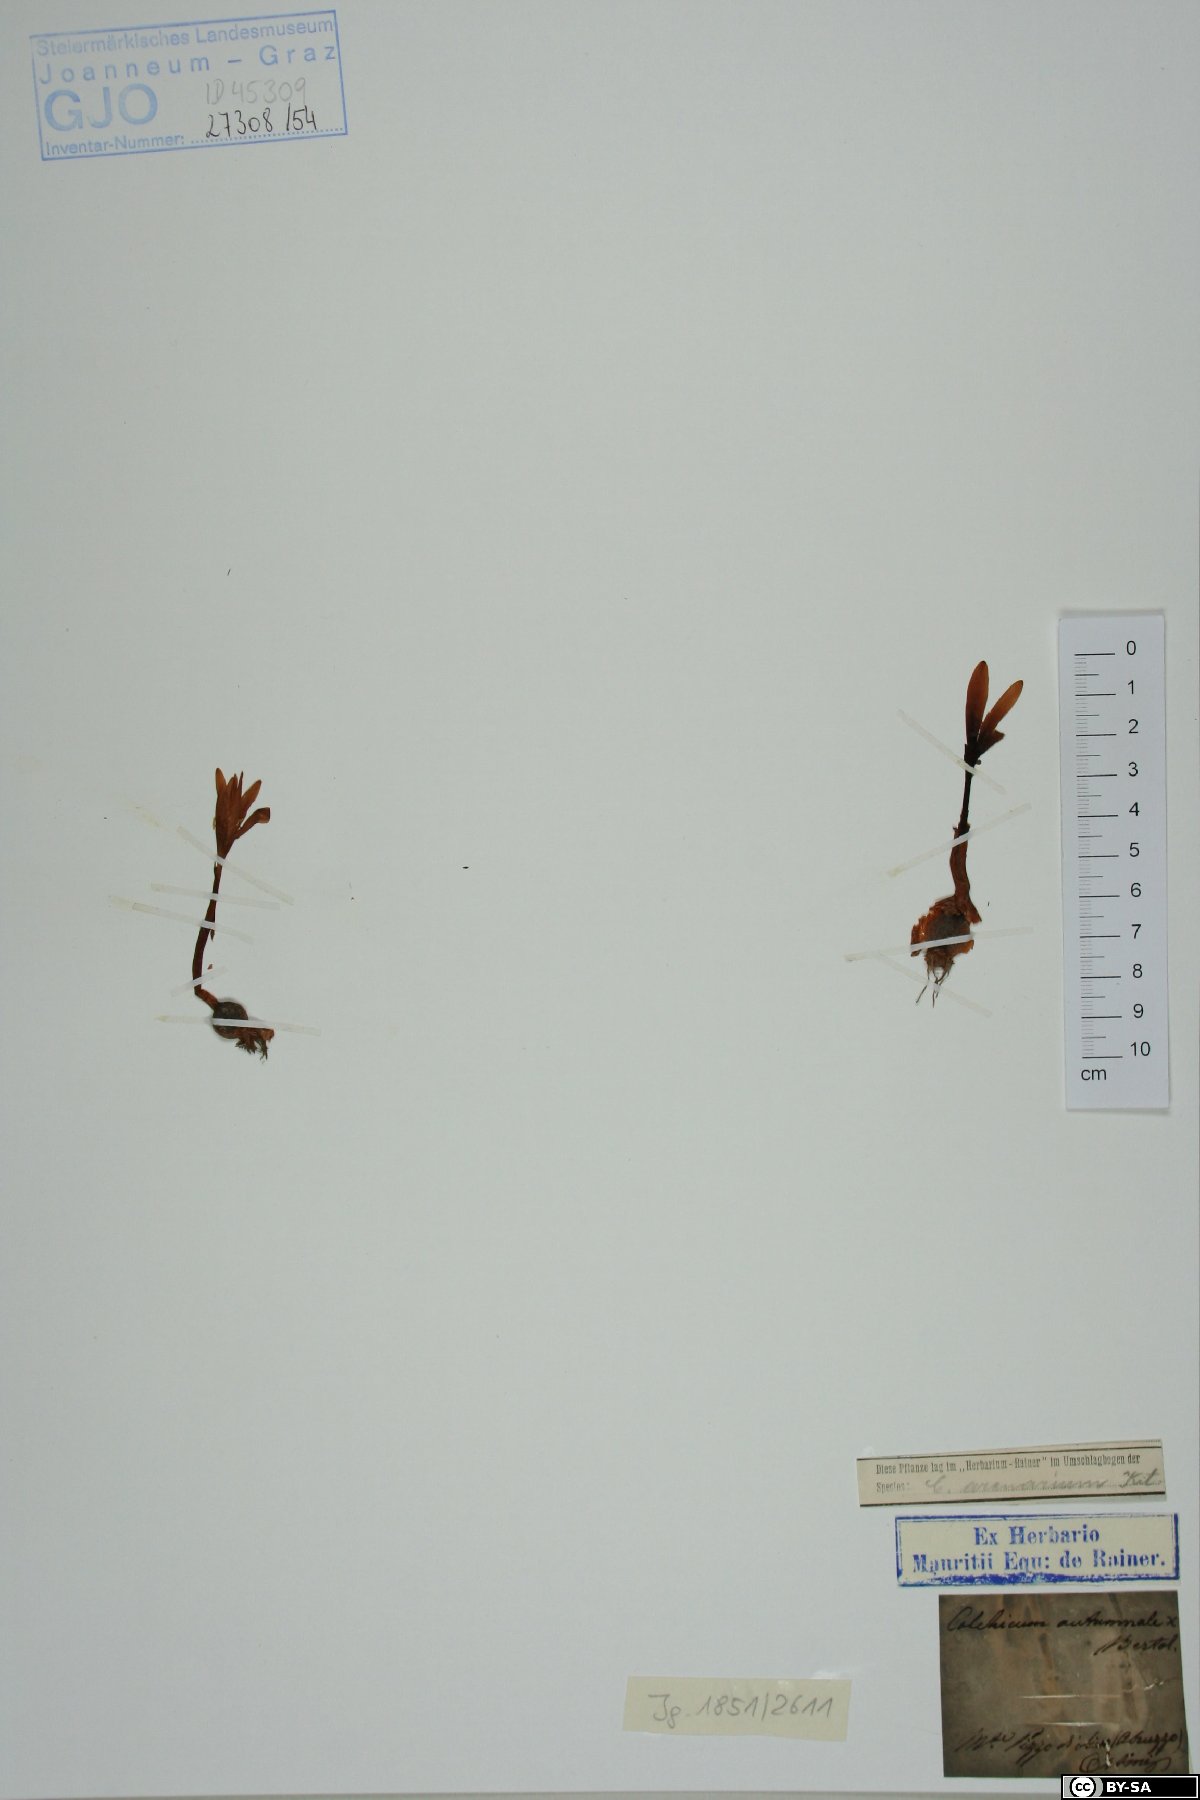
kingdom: Plantae
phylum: Tracheophyta
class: Liliopsida
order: Liliales
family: Colchicaceae
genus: Colchicum
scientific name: Colchicum autumnale
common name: Autumn crocus
